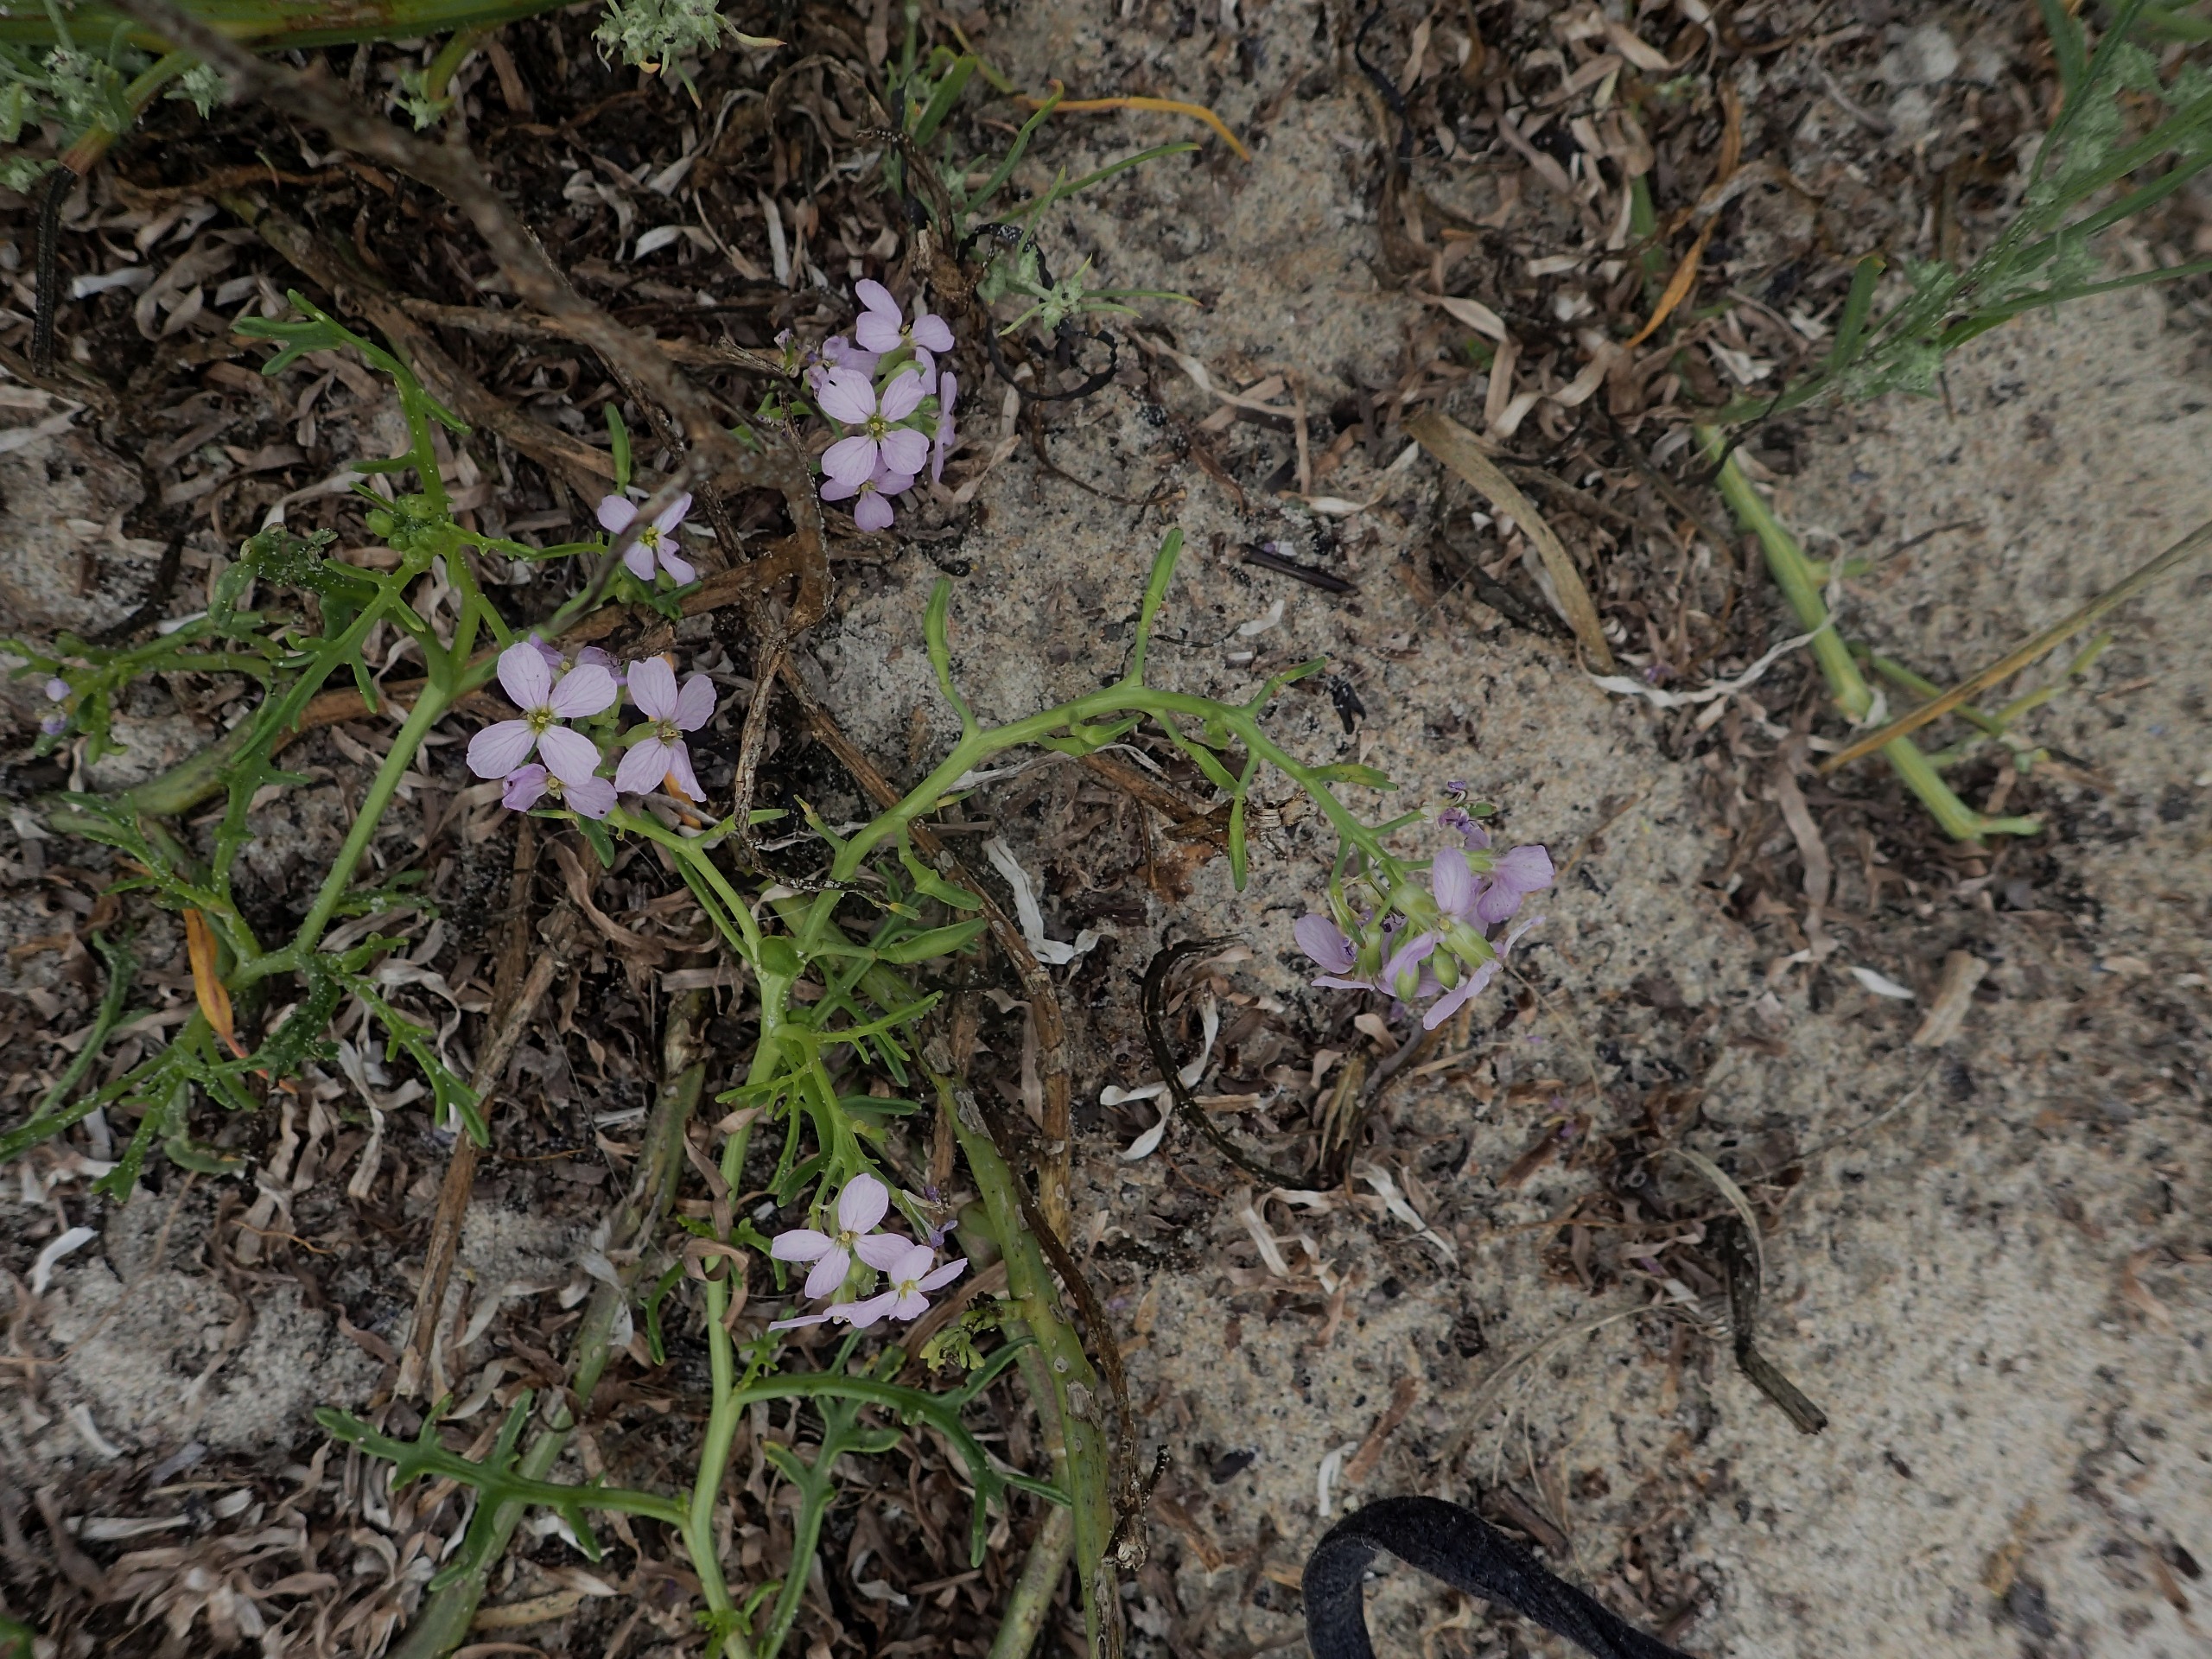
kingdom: Plantae
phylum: Tracheophyta
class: Magnoliopsida
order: Brassicales
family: Brassicaceae
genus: Cakile
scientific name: Cakile maritima
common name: Østersø-strandsennep
